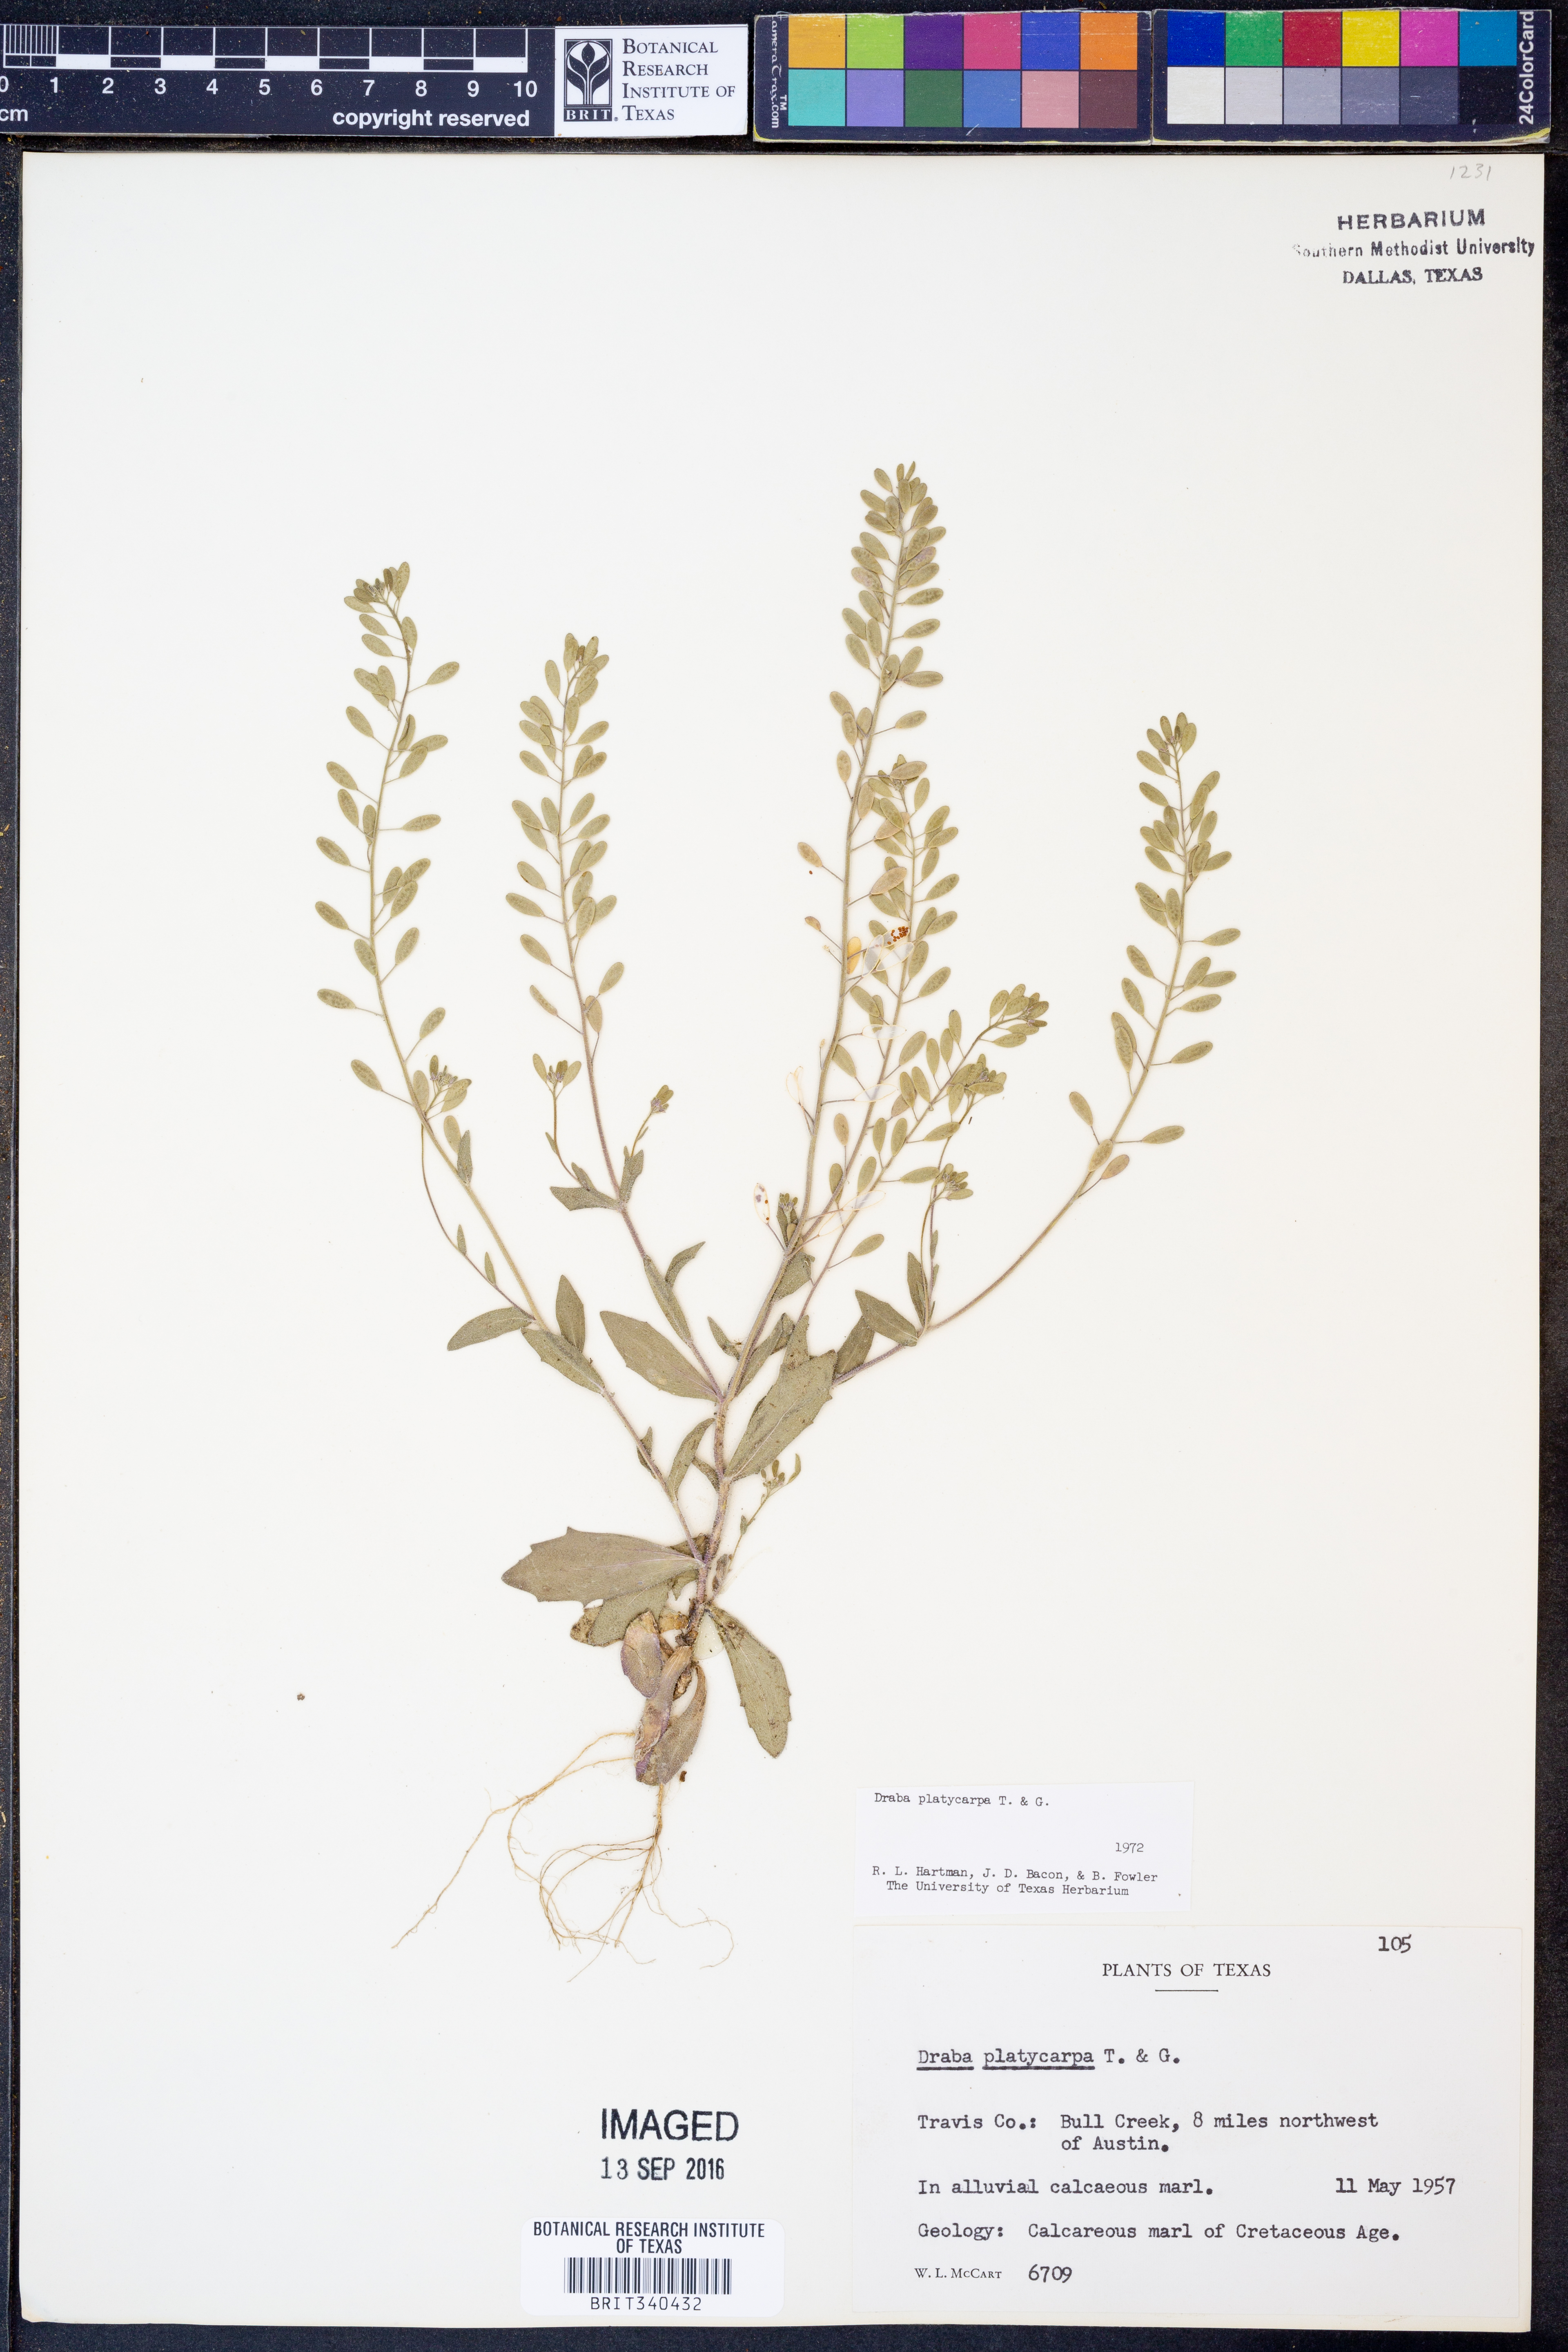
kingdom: Plantae
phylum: Tracheophyta
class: Magnoliopsida
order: Brassicales
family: Brassicaceae
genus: Tomostima
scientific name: Tomostima platycarpa
